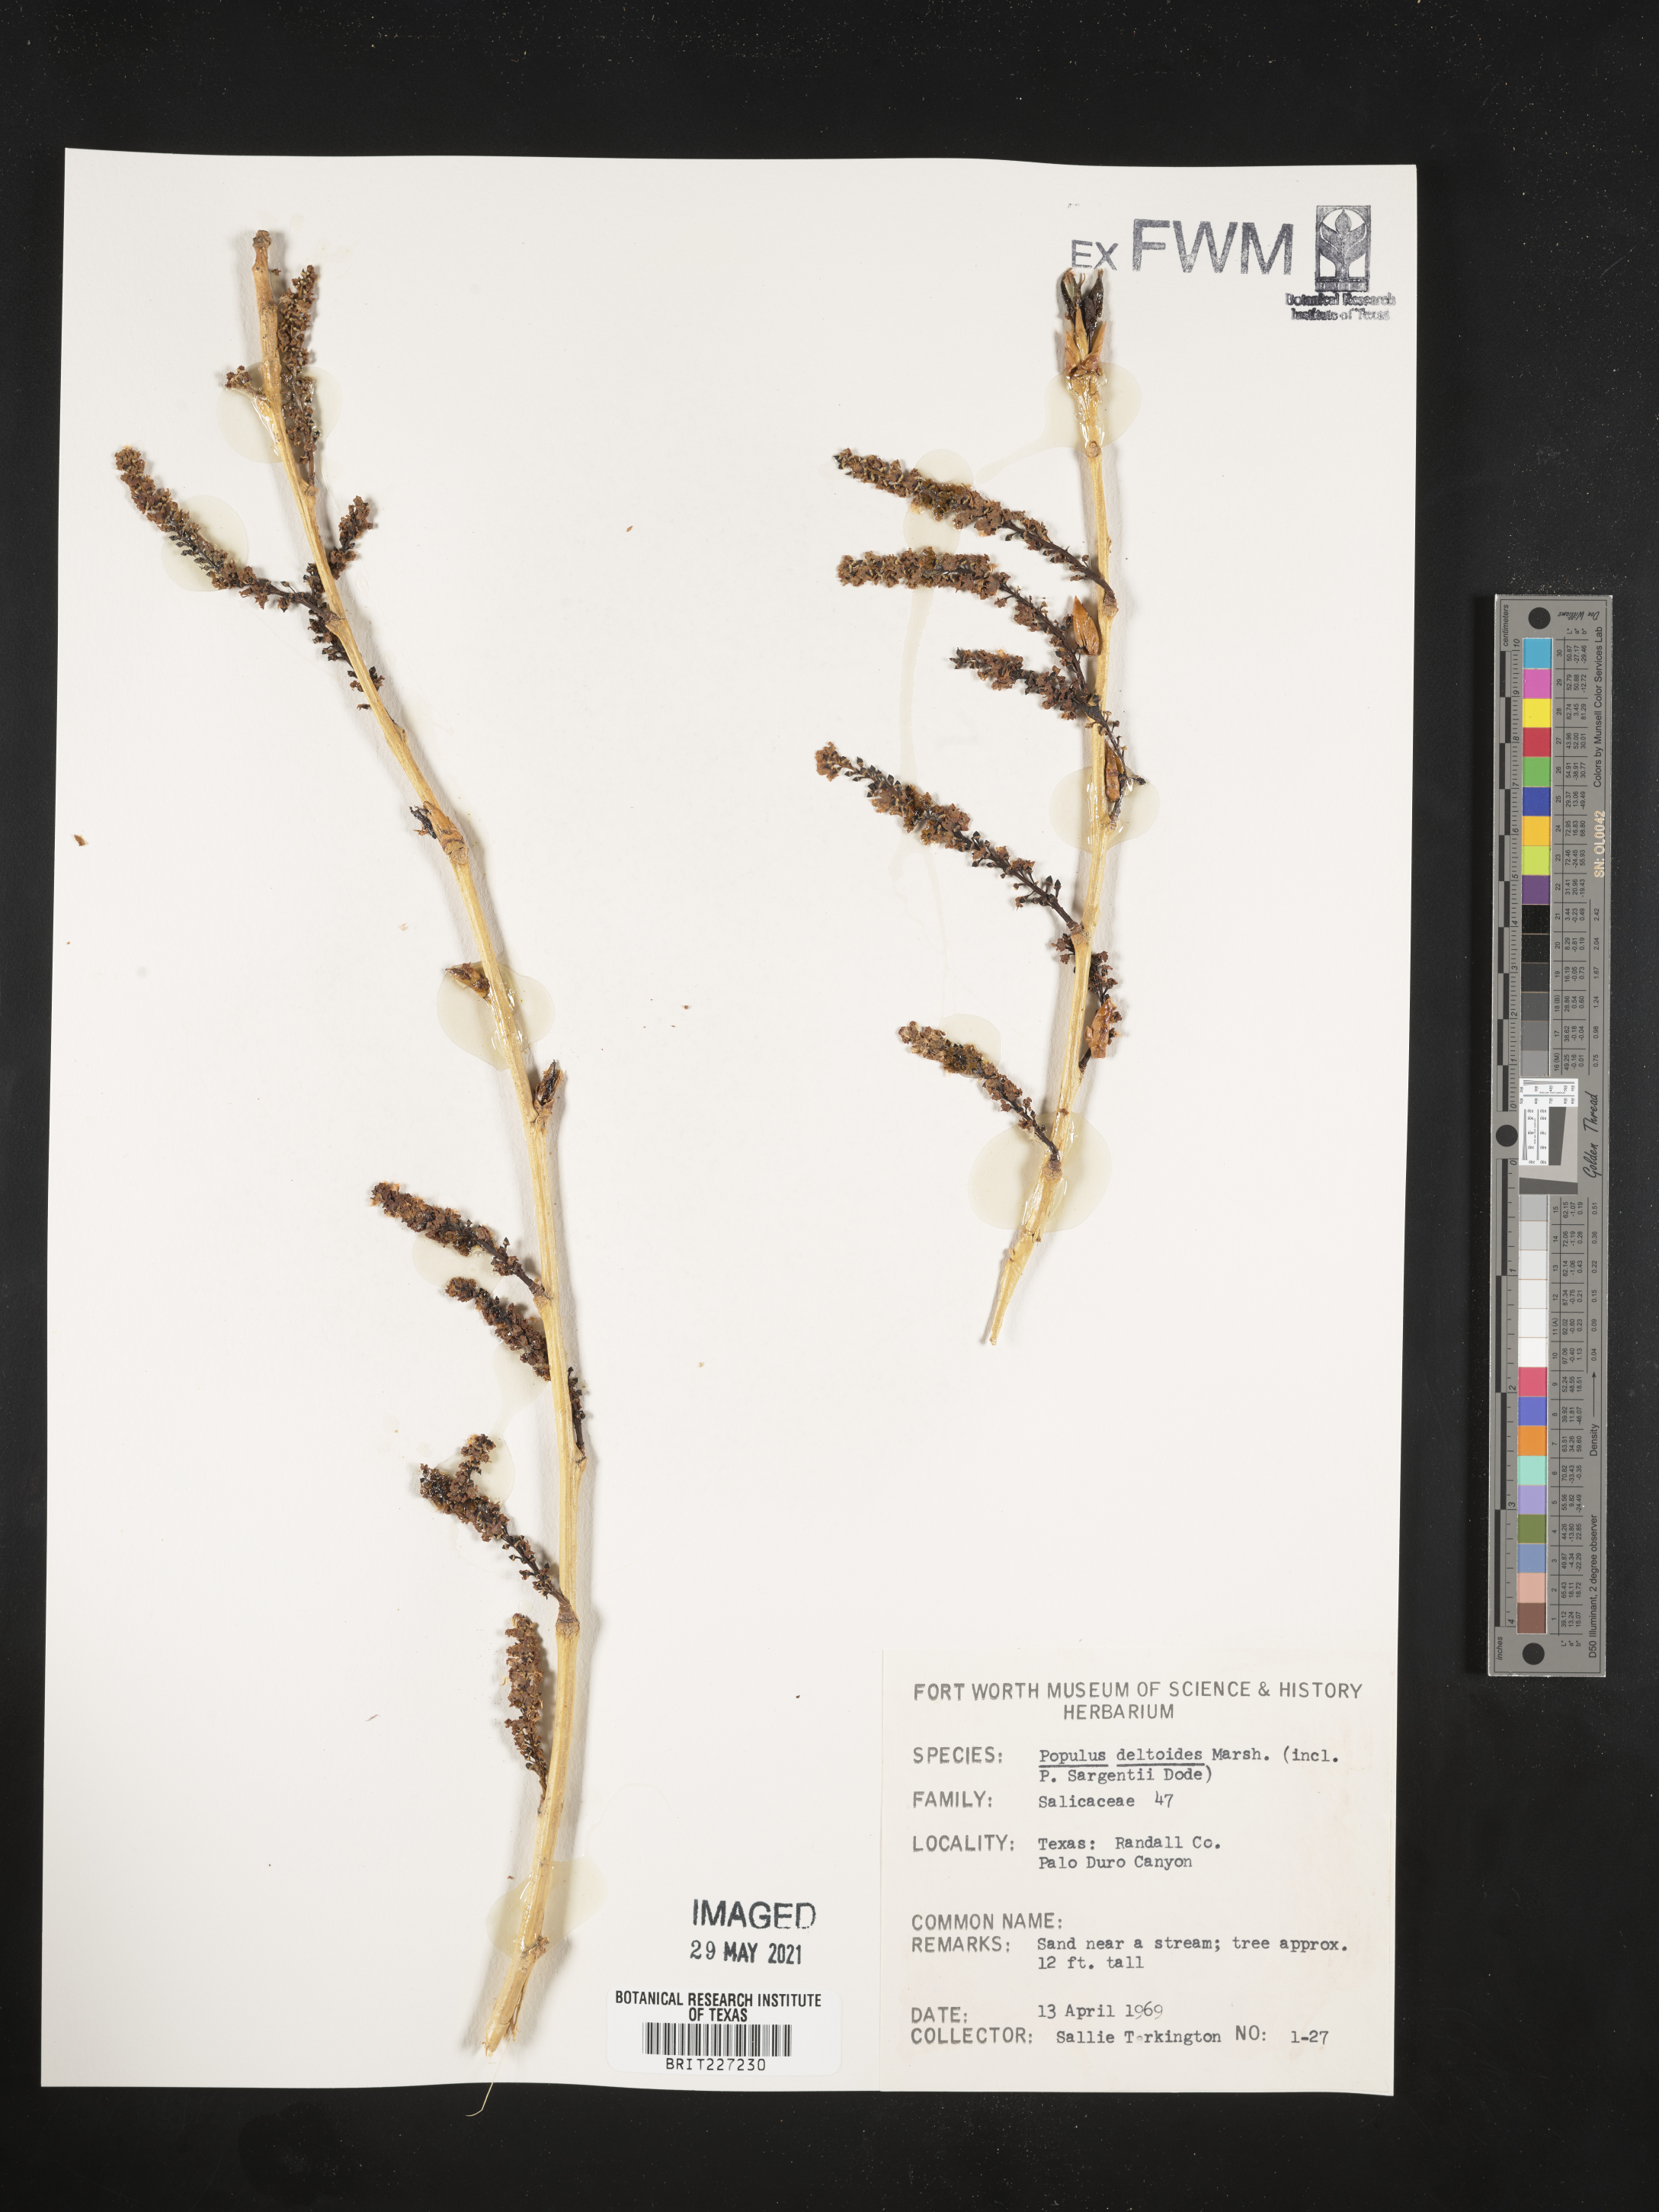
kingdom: Plantae
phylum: Tracheophyta
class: Magnoliopsida
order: Malpighiales
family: Salicaceae
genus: Populus
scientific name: Populus deltoides
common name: Eastern cottonwood
